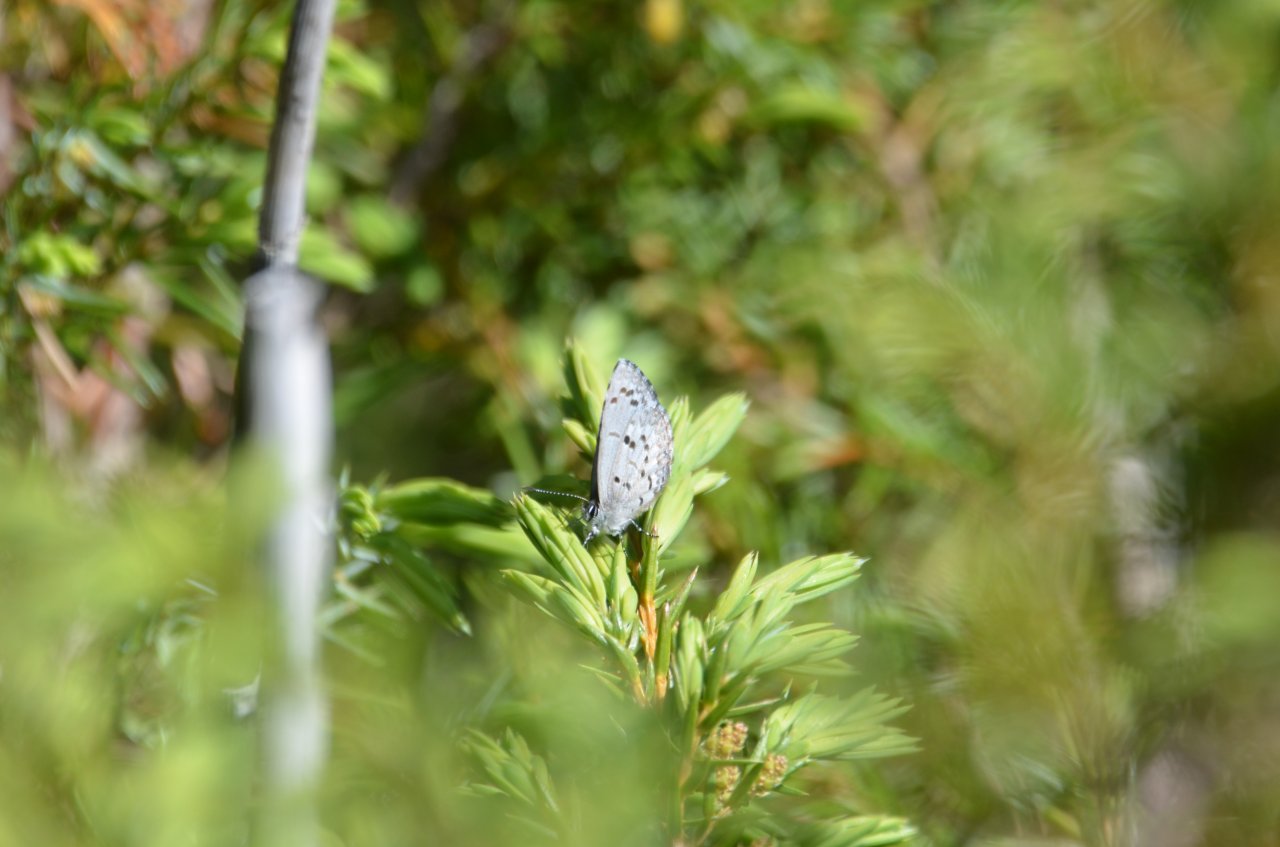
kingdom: Animalia
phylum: Arthropoda
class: Insecta
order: Lepidoptera
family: Lycaenidae
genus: Celastrina
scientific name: Celastrina lucia
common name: Northern Spring Azure
